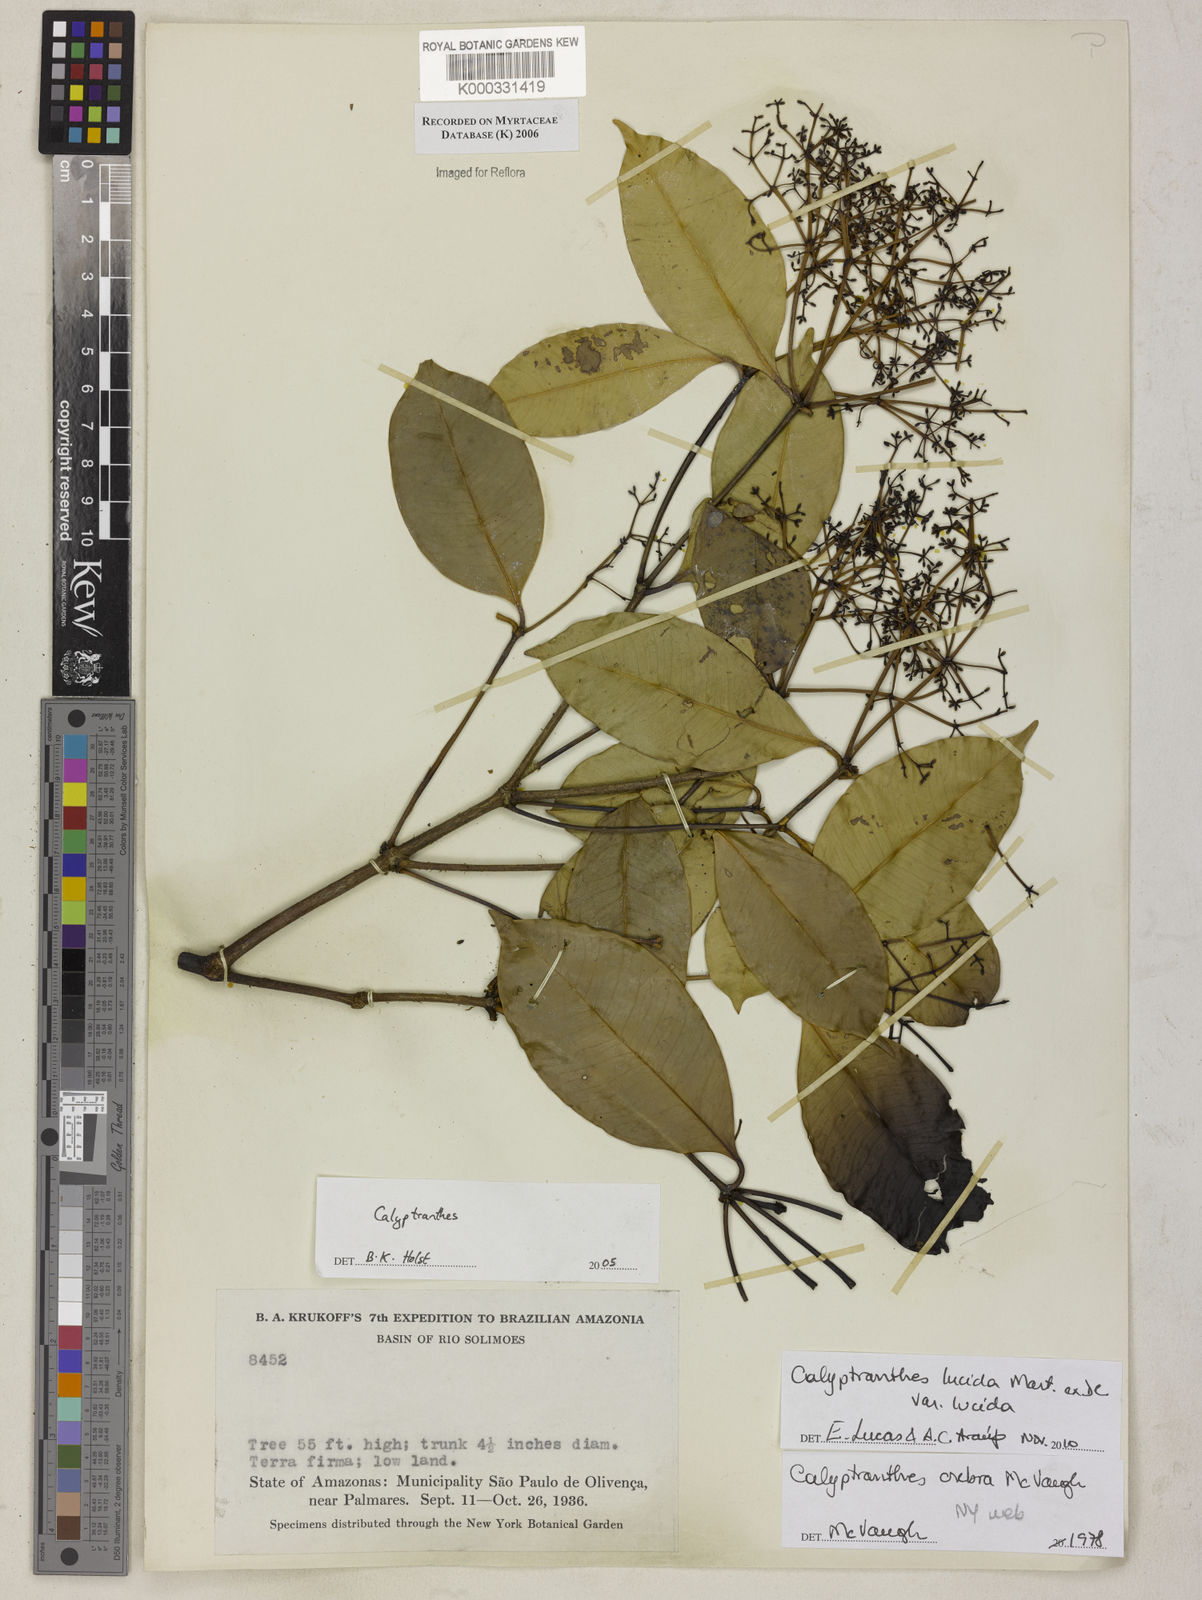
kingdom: Plantae
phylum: Tracheophyta
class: Magnoliopsida
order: Myrtales
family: Myrtaceae
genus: Calyptranthes
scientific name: Calyptranthes
